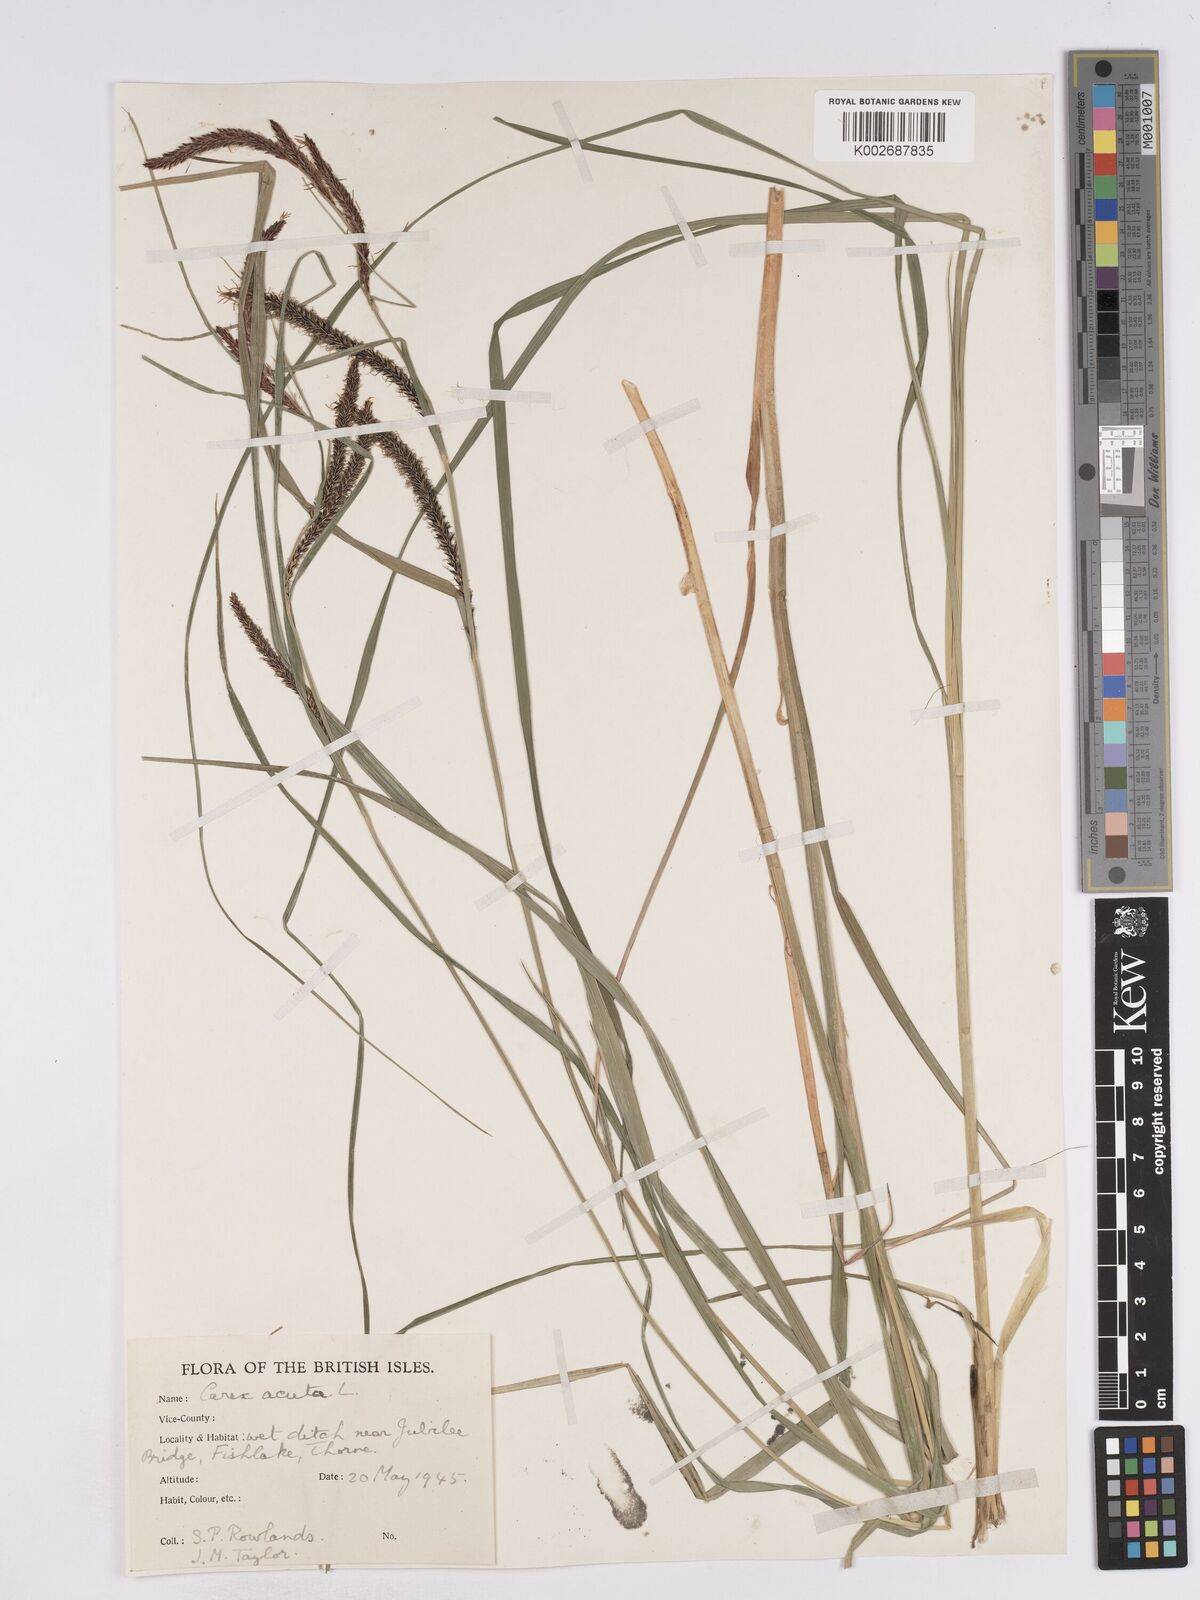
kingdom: Plantae
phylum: Tracheophyta
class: Liliopsida
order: Poales
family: Cyperaceae
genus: Carex
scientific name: Carex acuta
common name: Slender tufted-sedge
